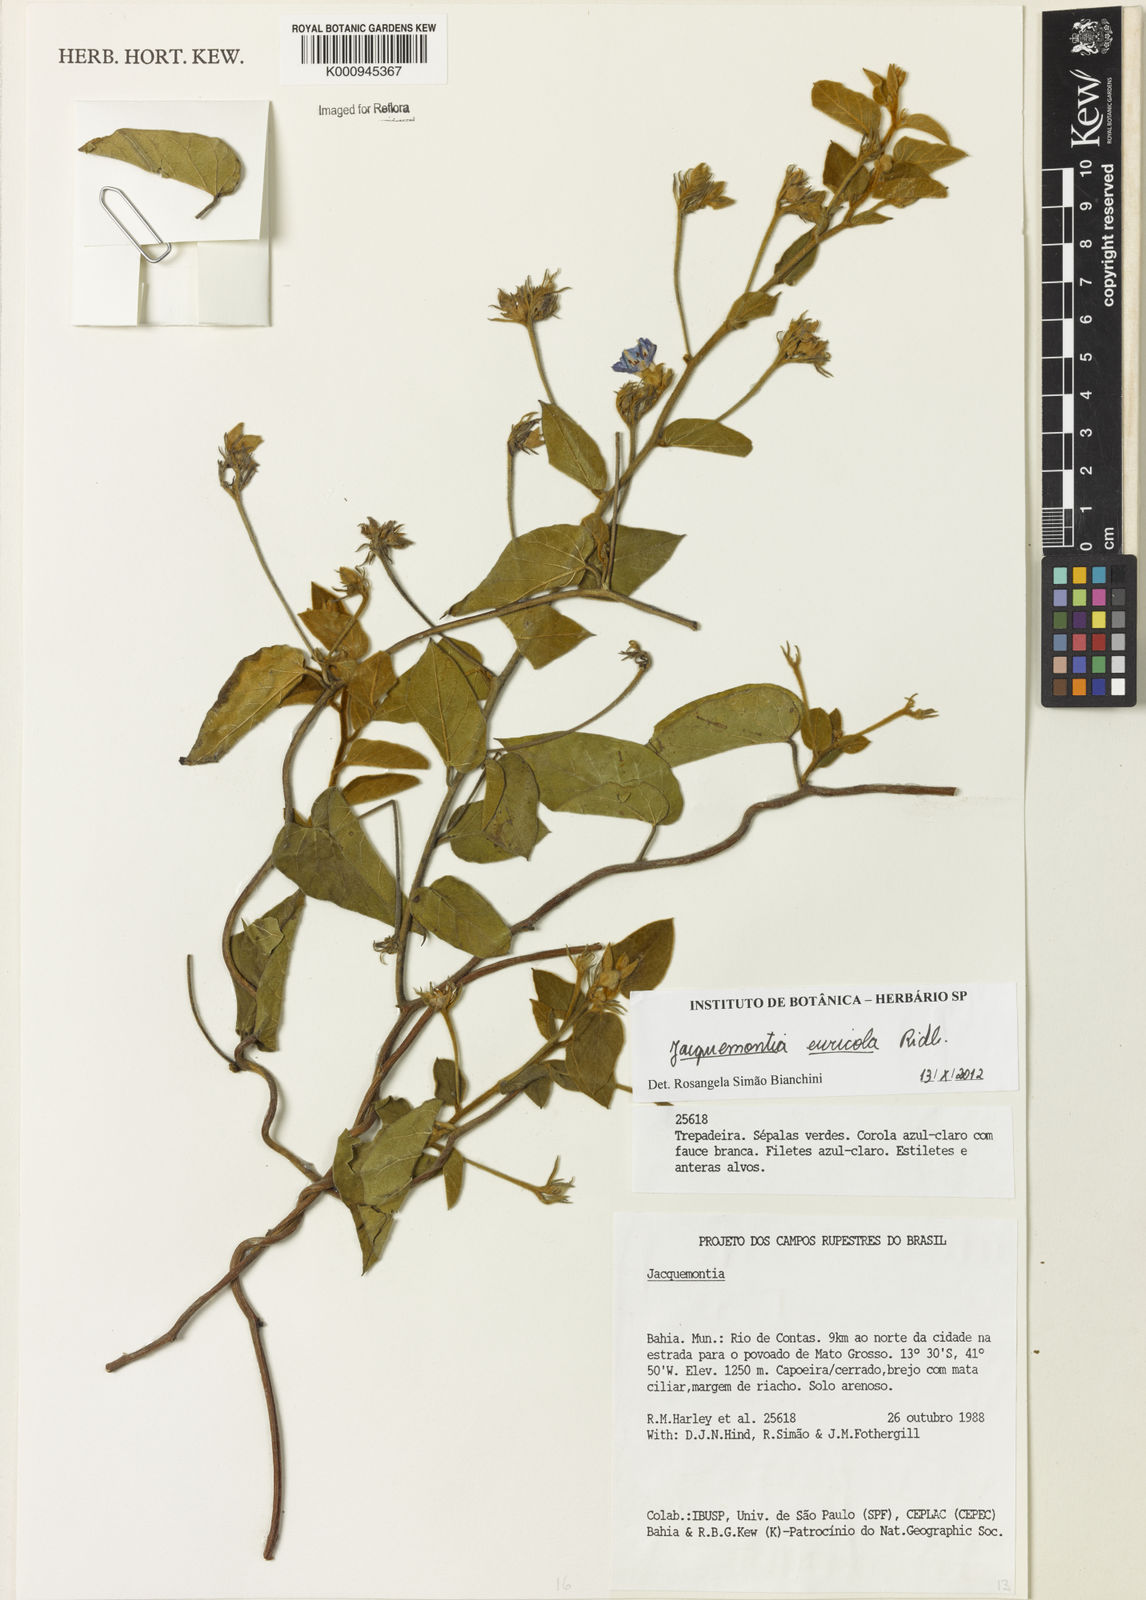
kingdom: Plantae
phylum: Tracheophyta
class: Magnoliopsida
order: Solanales
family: Convolvulaceae
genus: Jacquemontia
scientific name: Jacquemontia euricola
